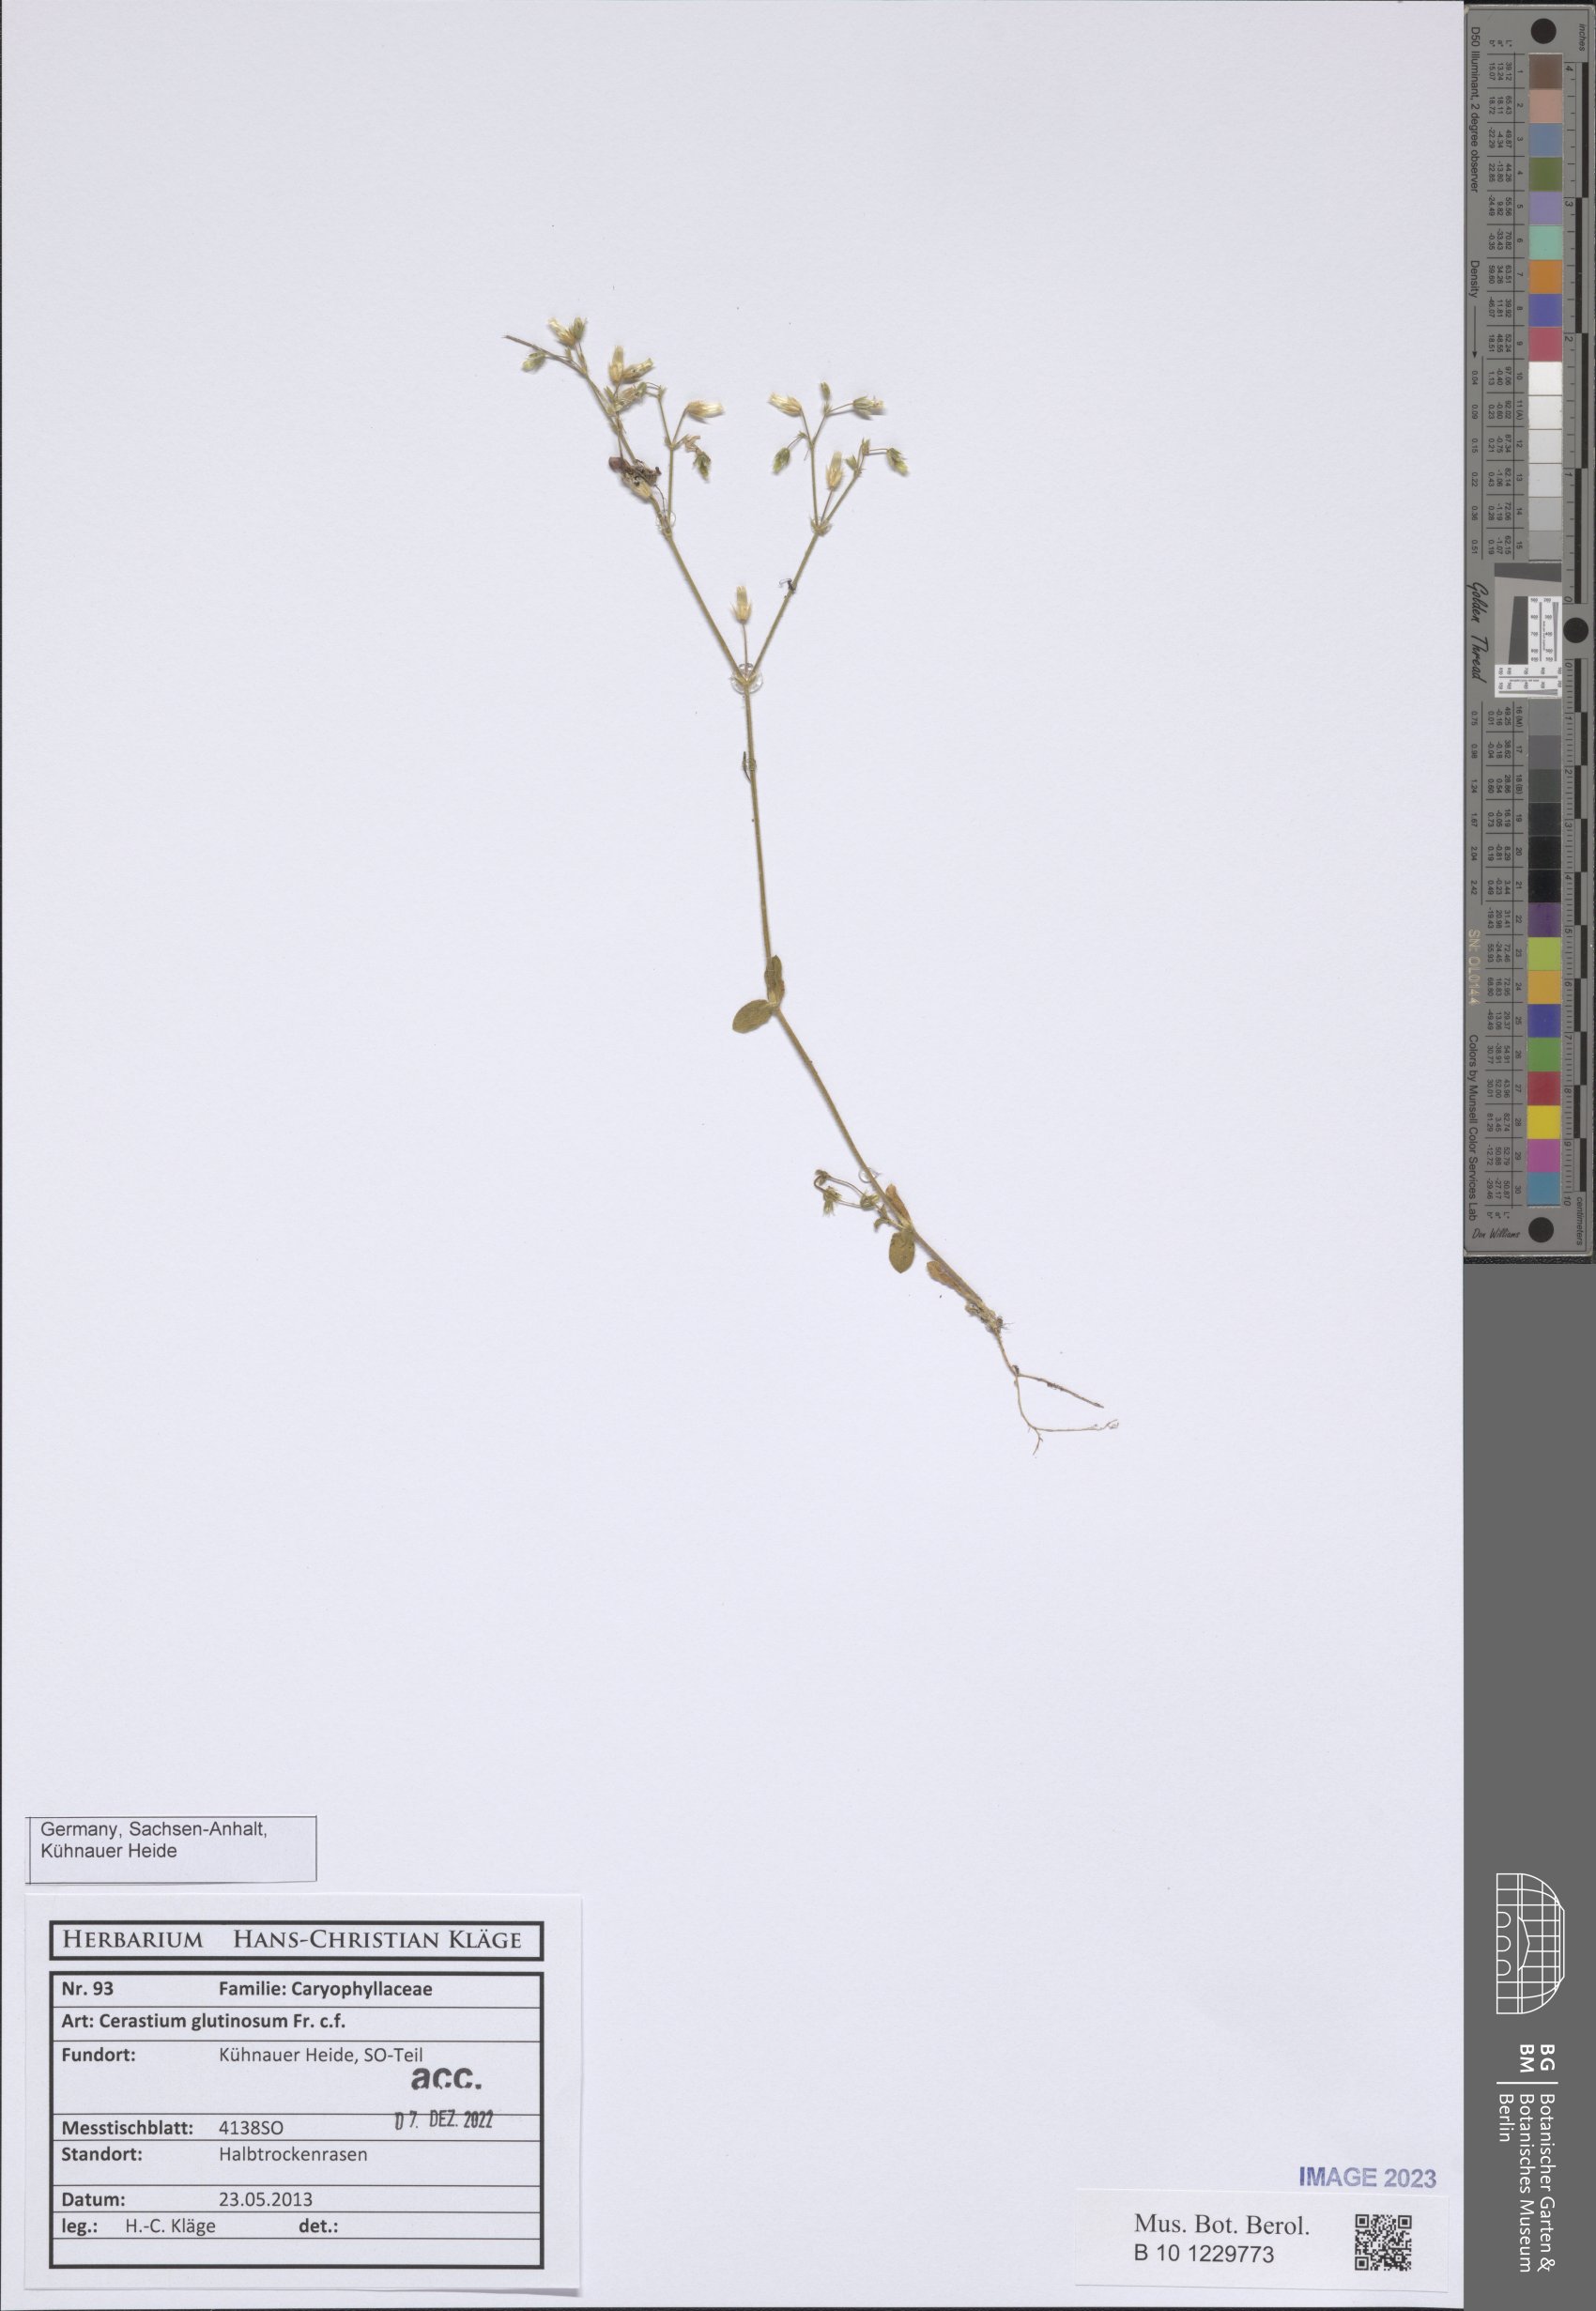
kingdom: Plantae
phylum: Tracheophyta
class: Magnoliopsida
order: Caryophyllales
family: Caryophyllaceae
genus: Cerastium
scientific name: Cerastium glutinosum
